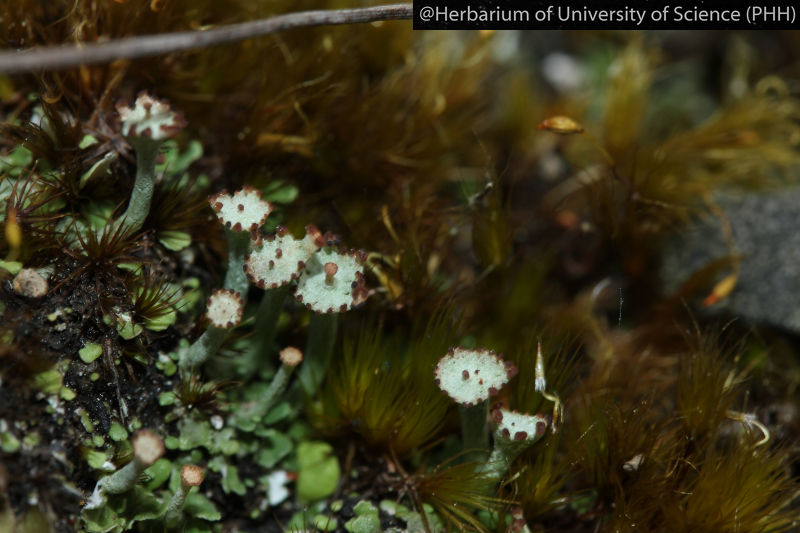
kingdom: Fungi
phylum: Ascomycota
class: Lecanoromycetes
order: Lecanorales
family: Cladoniaceae
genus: Cladonia
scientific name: Cladonia
